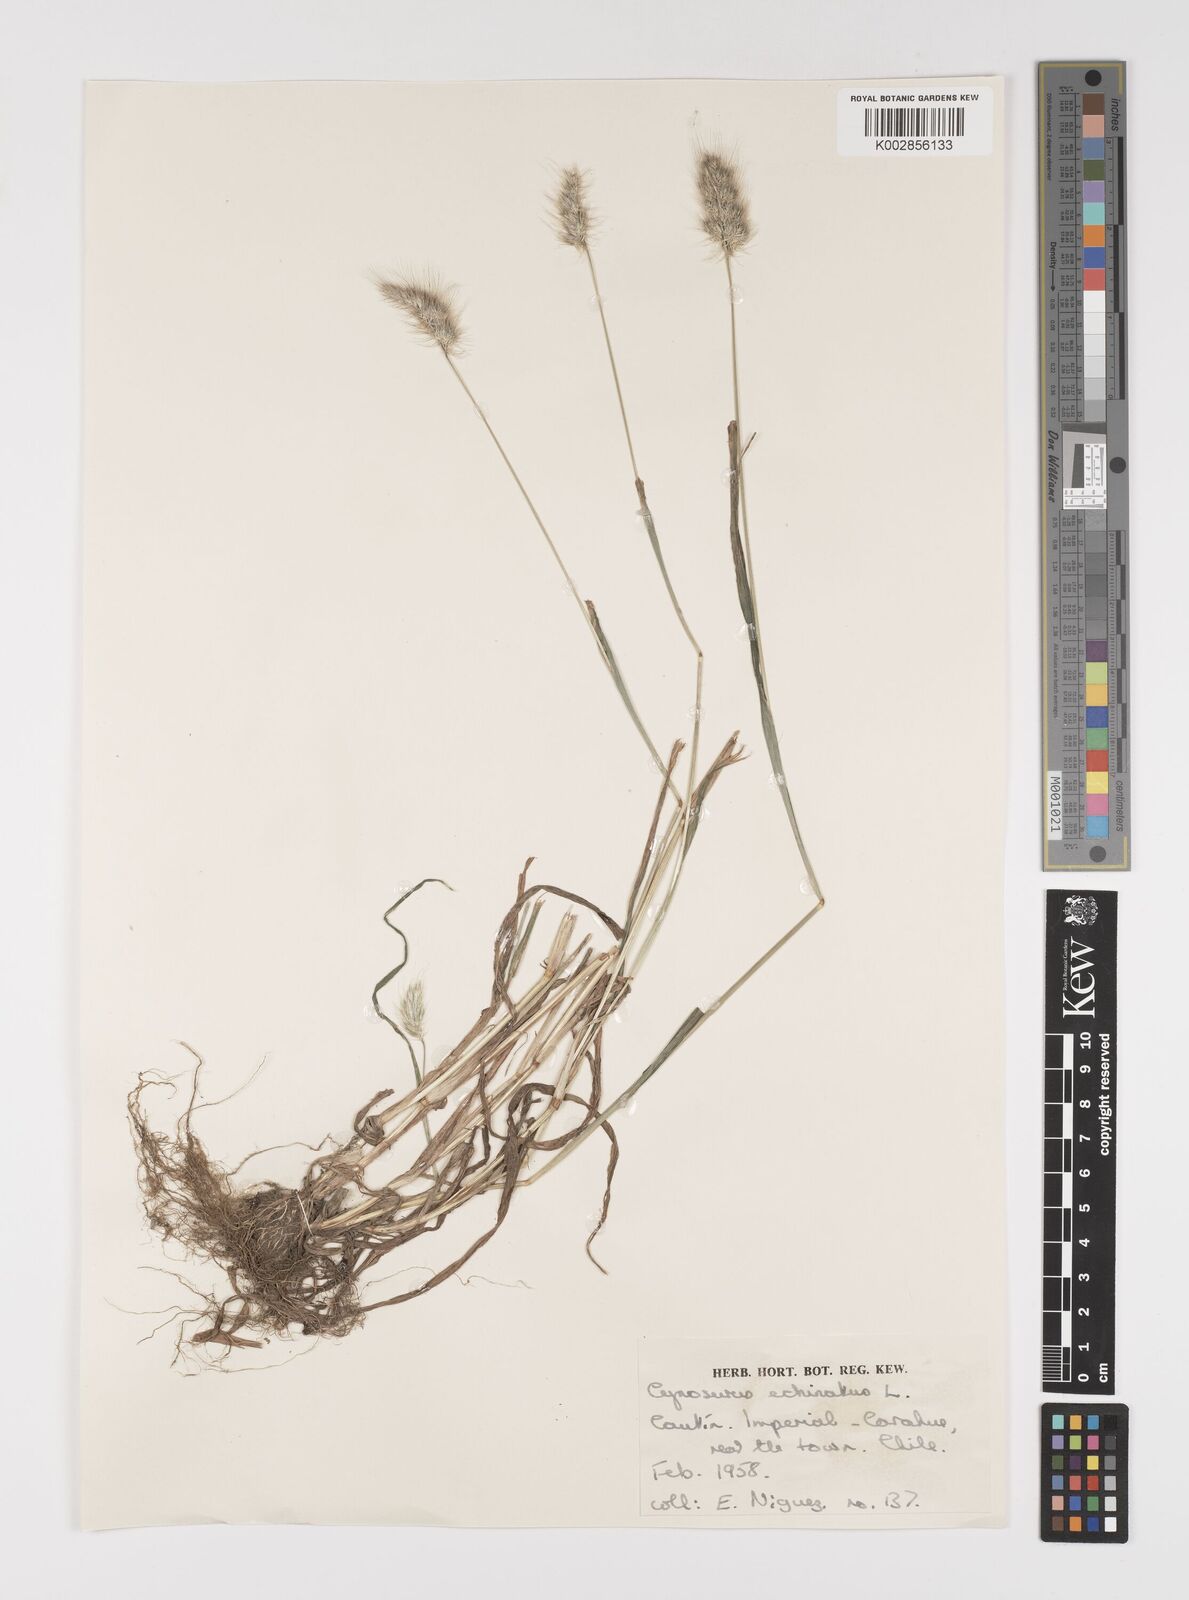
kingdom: Plantae
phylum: Tracheophyta
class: Liliopsida
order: Poales
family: Poaceae
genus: Cynosurus
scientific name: Cynosurus echinatus
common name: Rough dog's-tail
